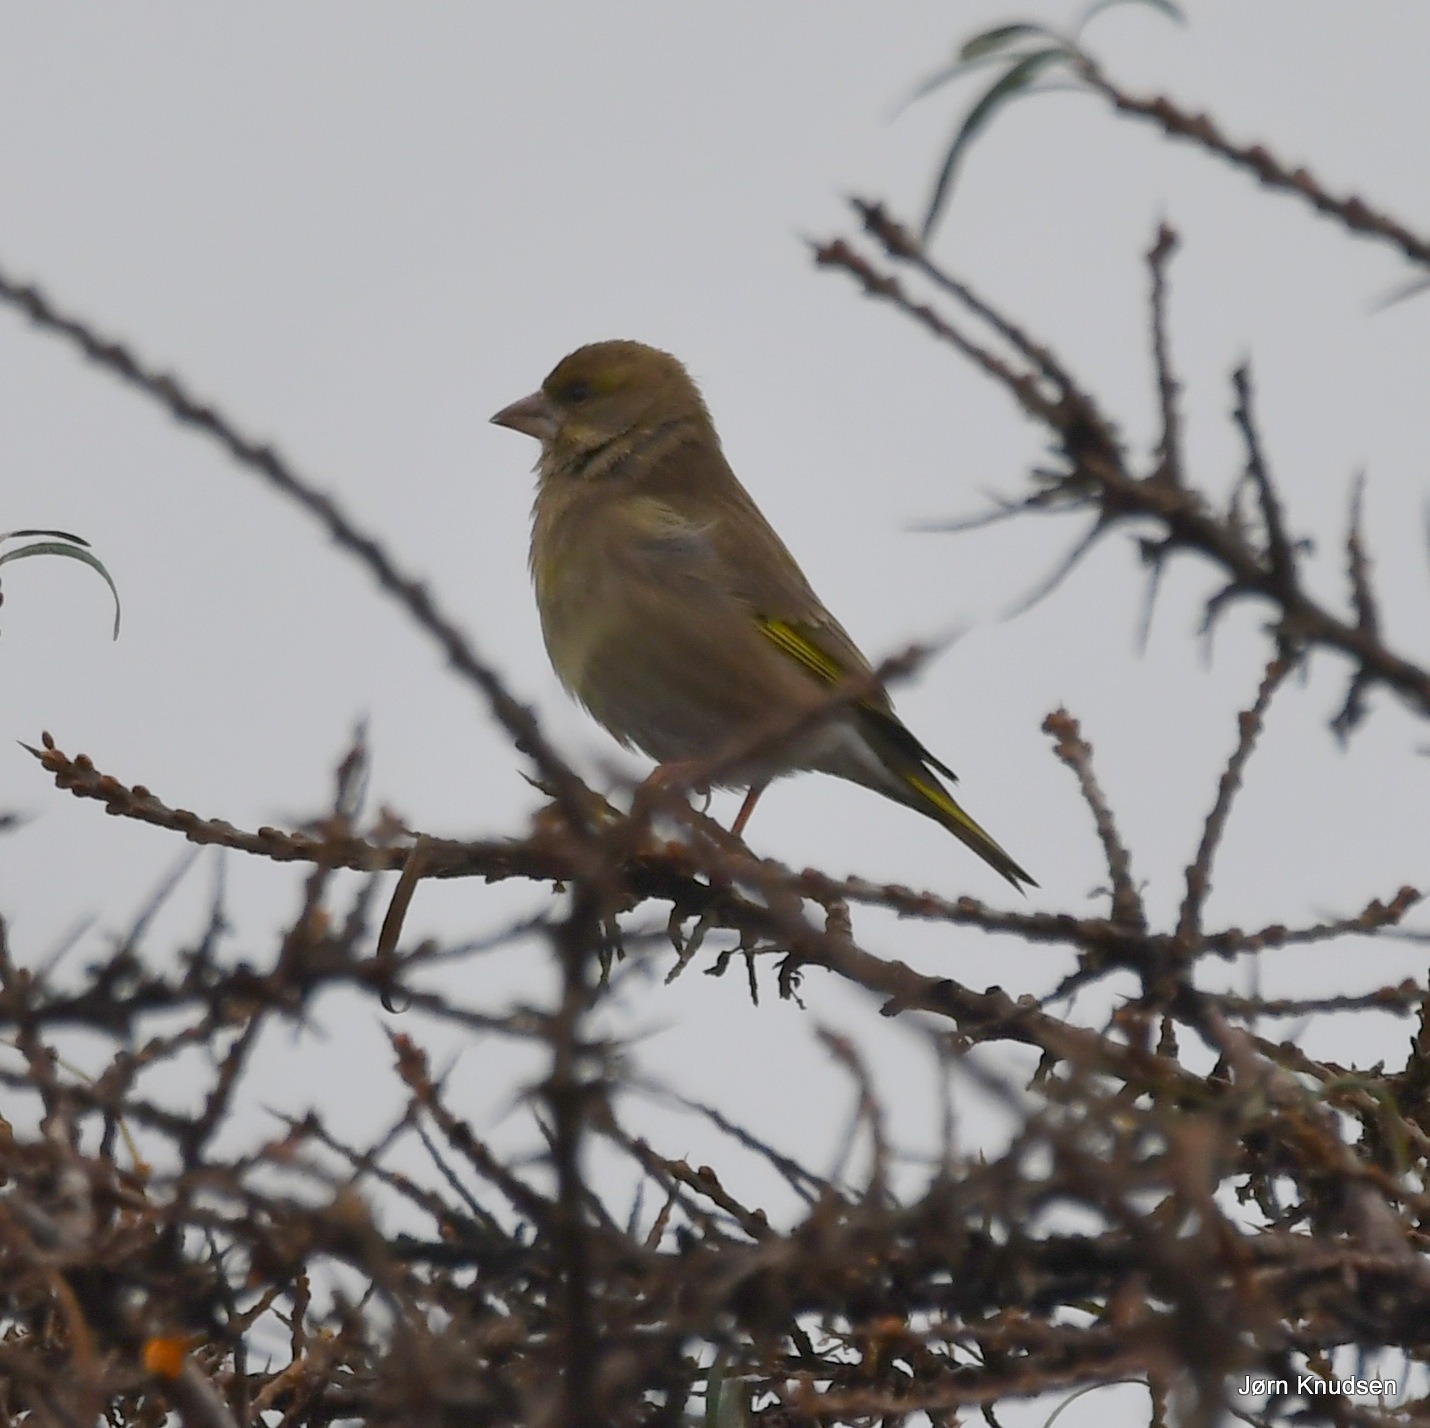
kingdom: Plantae
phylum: Tracheophyta
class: Liliopsida
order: Poales
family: Poaceae
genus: Chloris
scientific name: Chloris chloris
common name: Grønirisk
